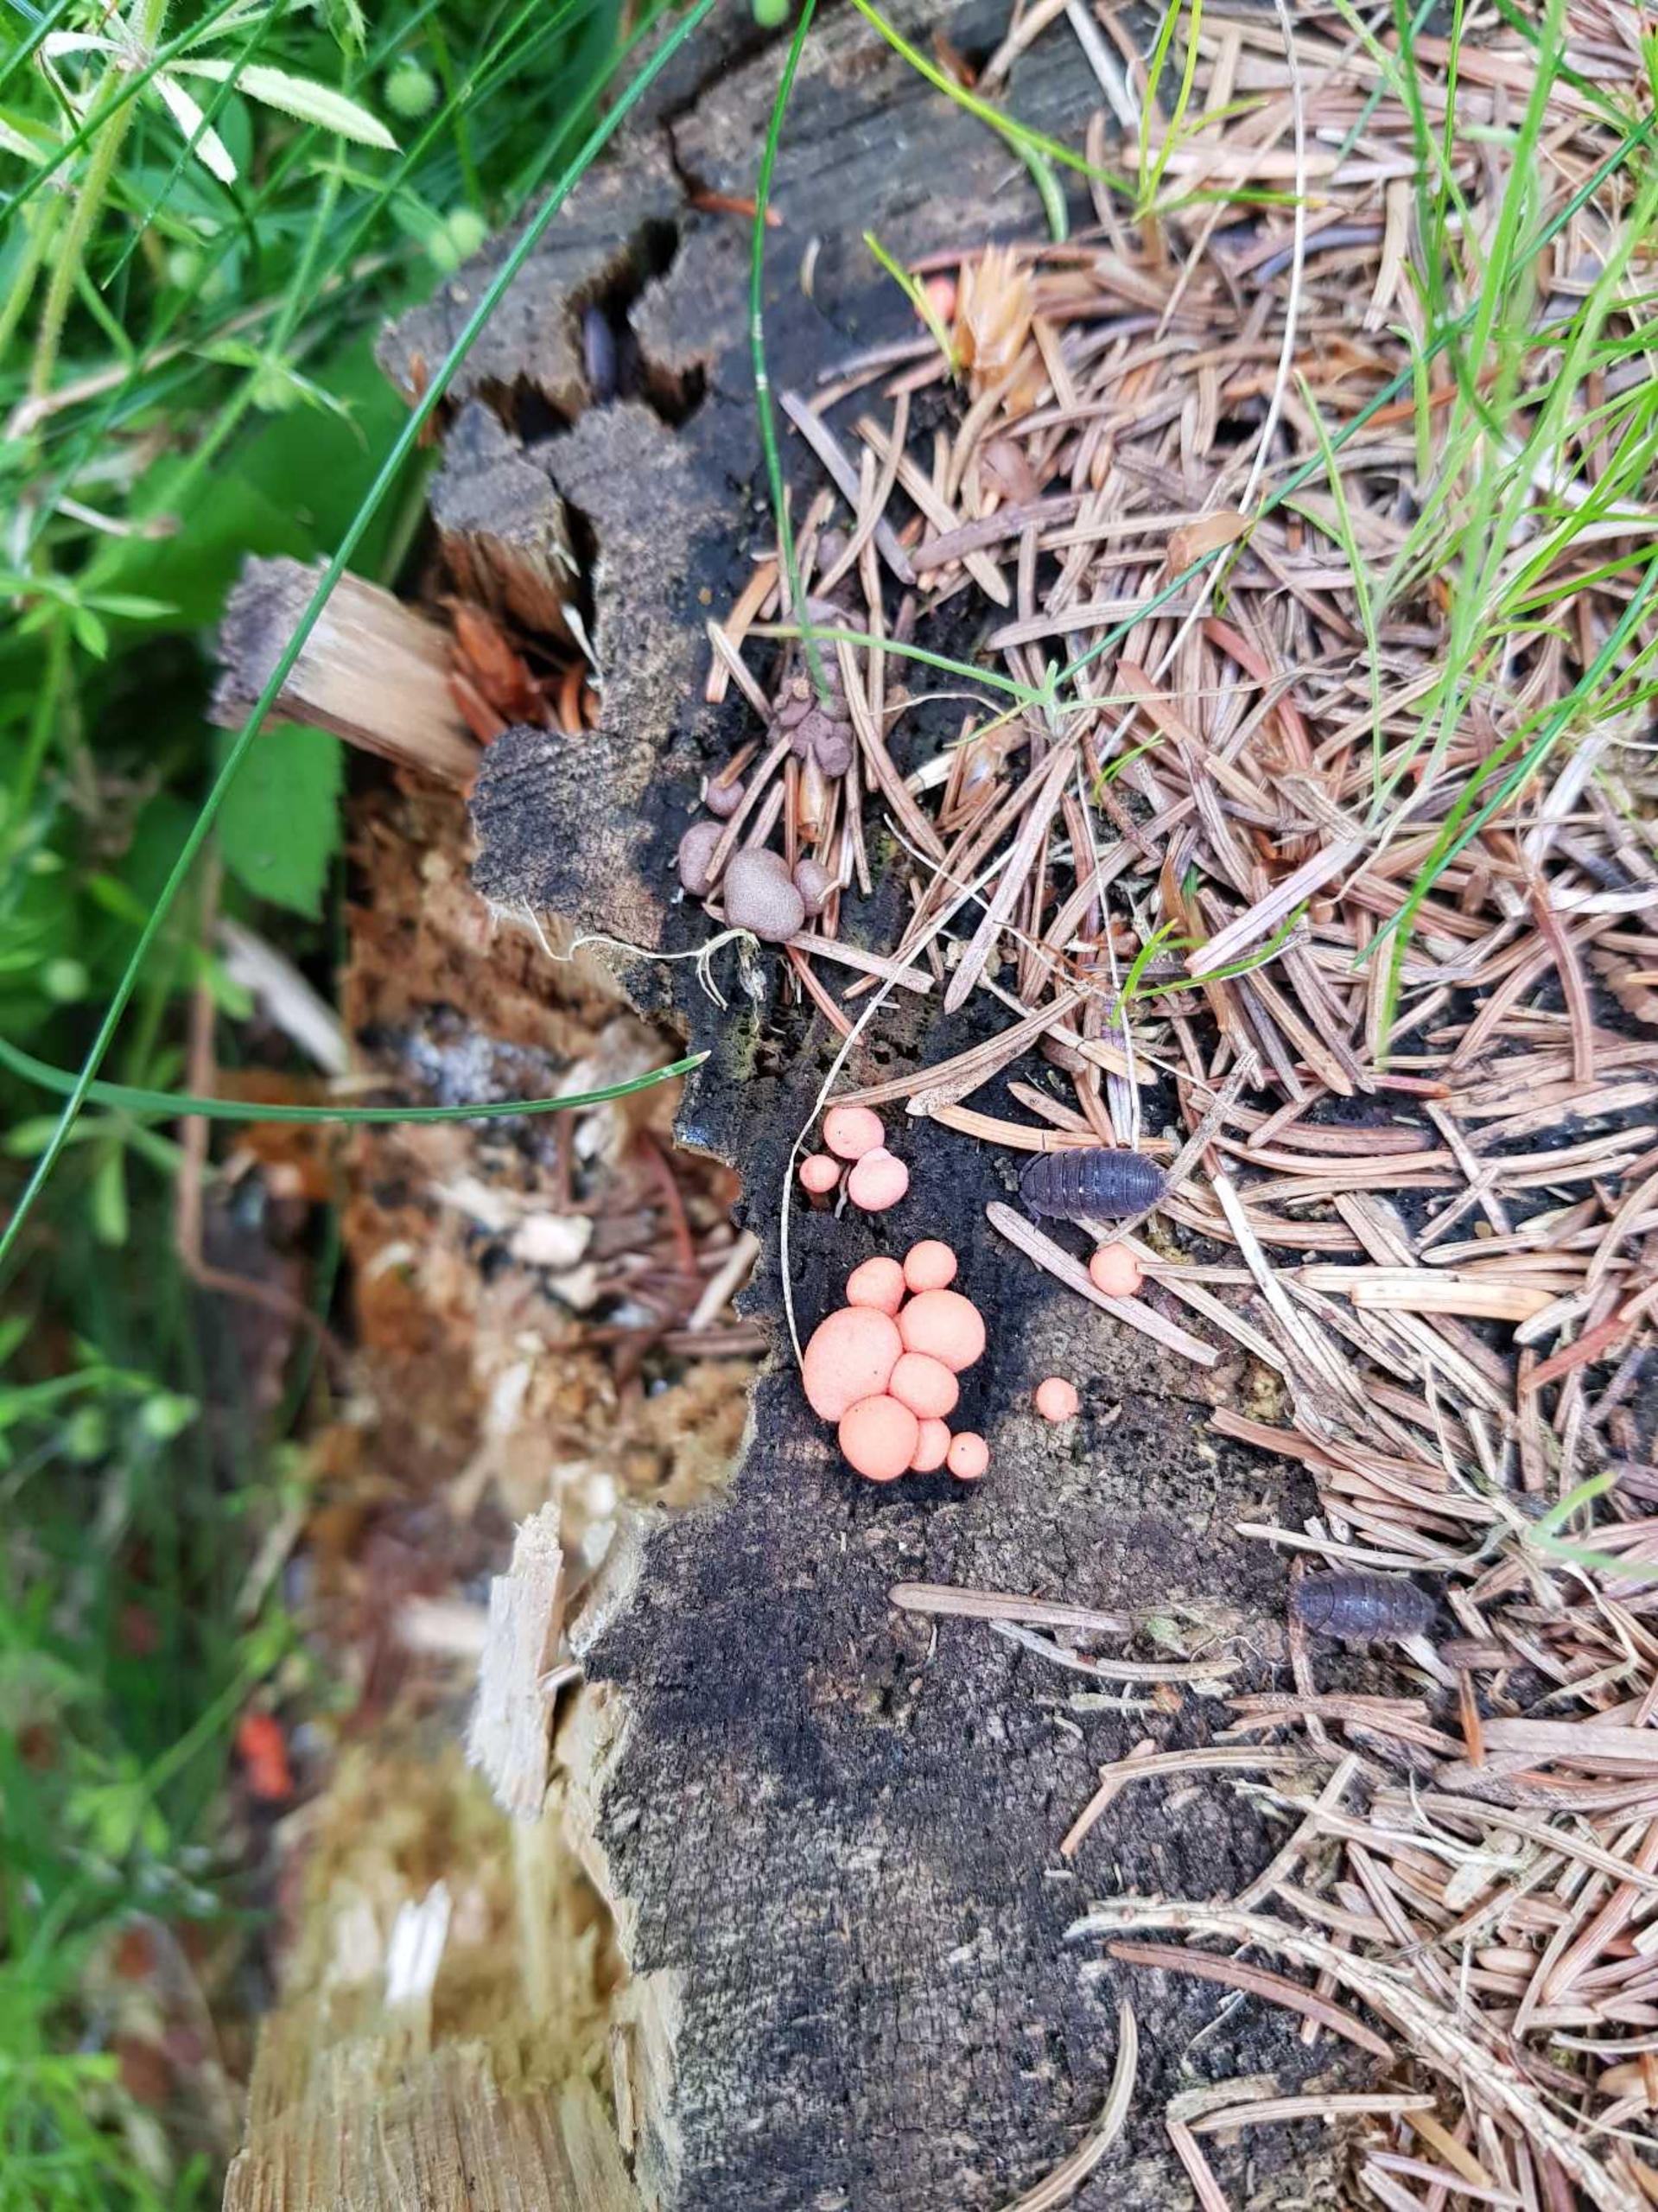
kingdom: Protozoa
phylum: Mycetozoa
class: Myxomycetes
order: Cribrariales
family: Tubiferaceae
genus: Lycogala
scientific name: Lycogala epidendrum
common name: Almindelig rødært
